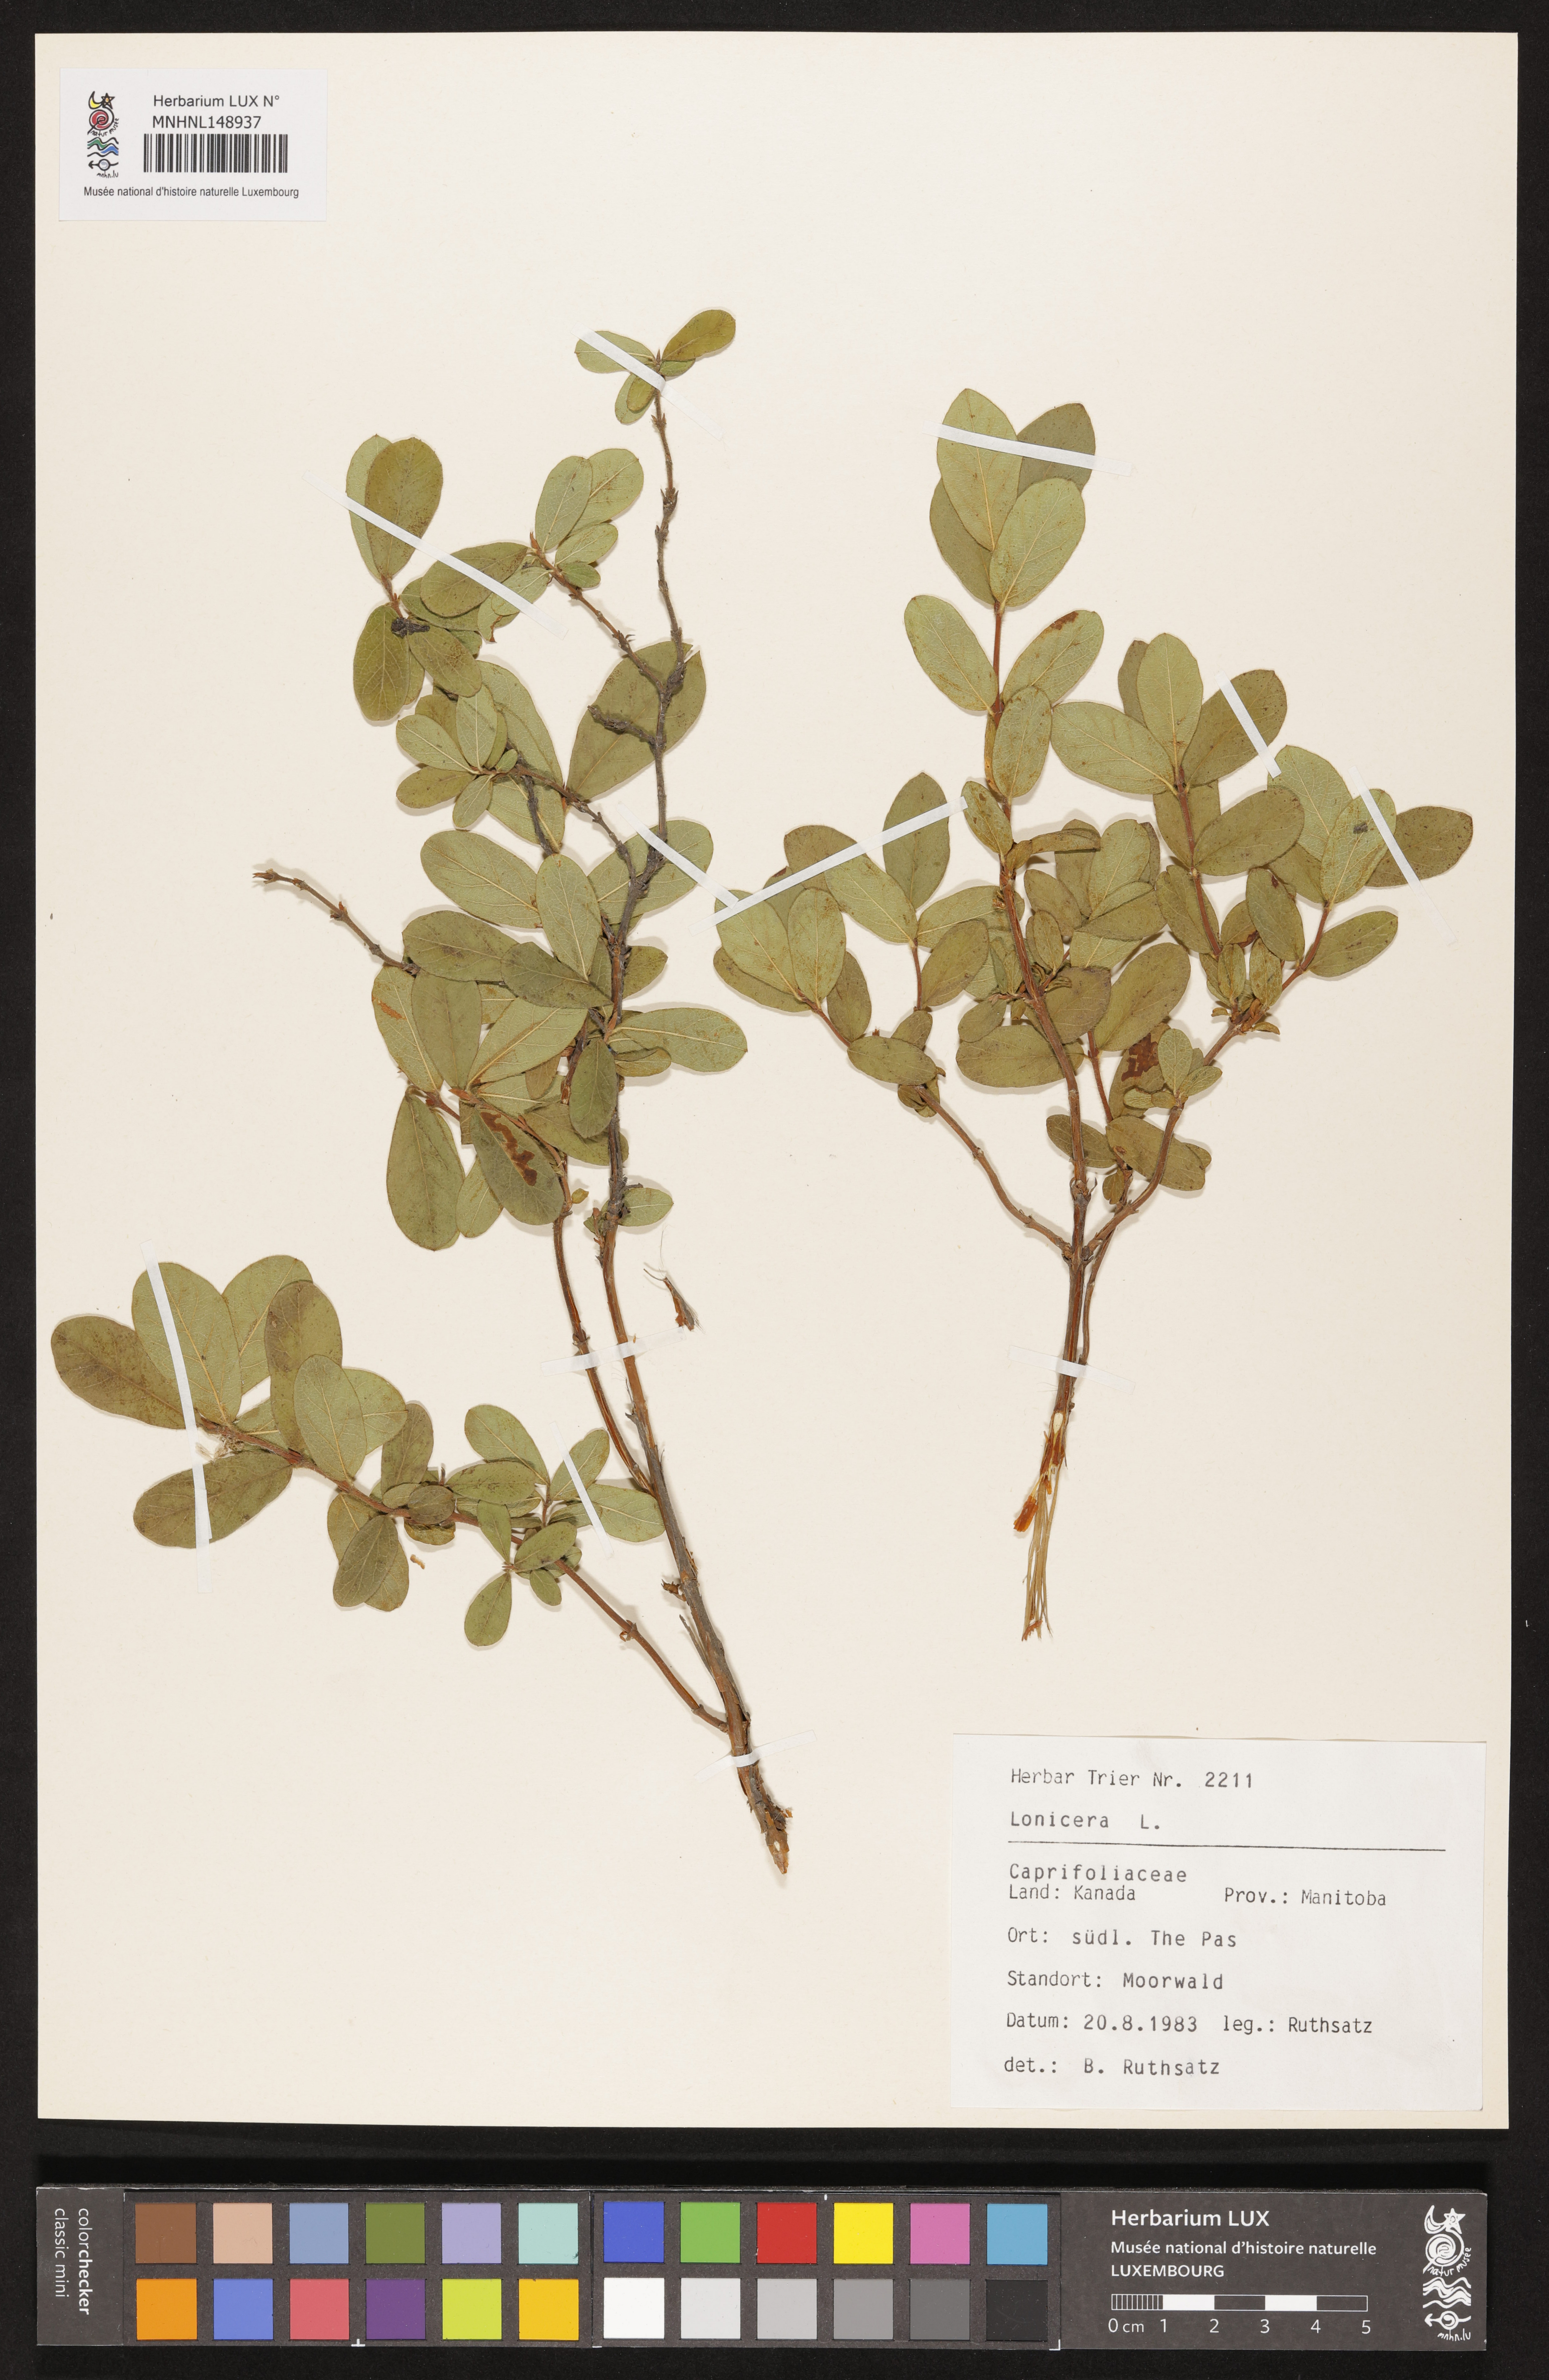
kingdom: Plantae
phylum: Tracheophyta
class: Magnoliopsida
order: Dipsacales
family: Caprifoliaceae
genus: Lonicera
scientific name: Lonicera
